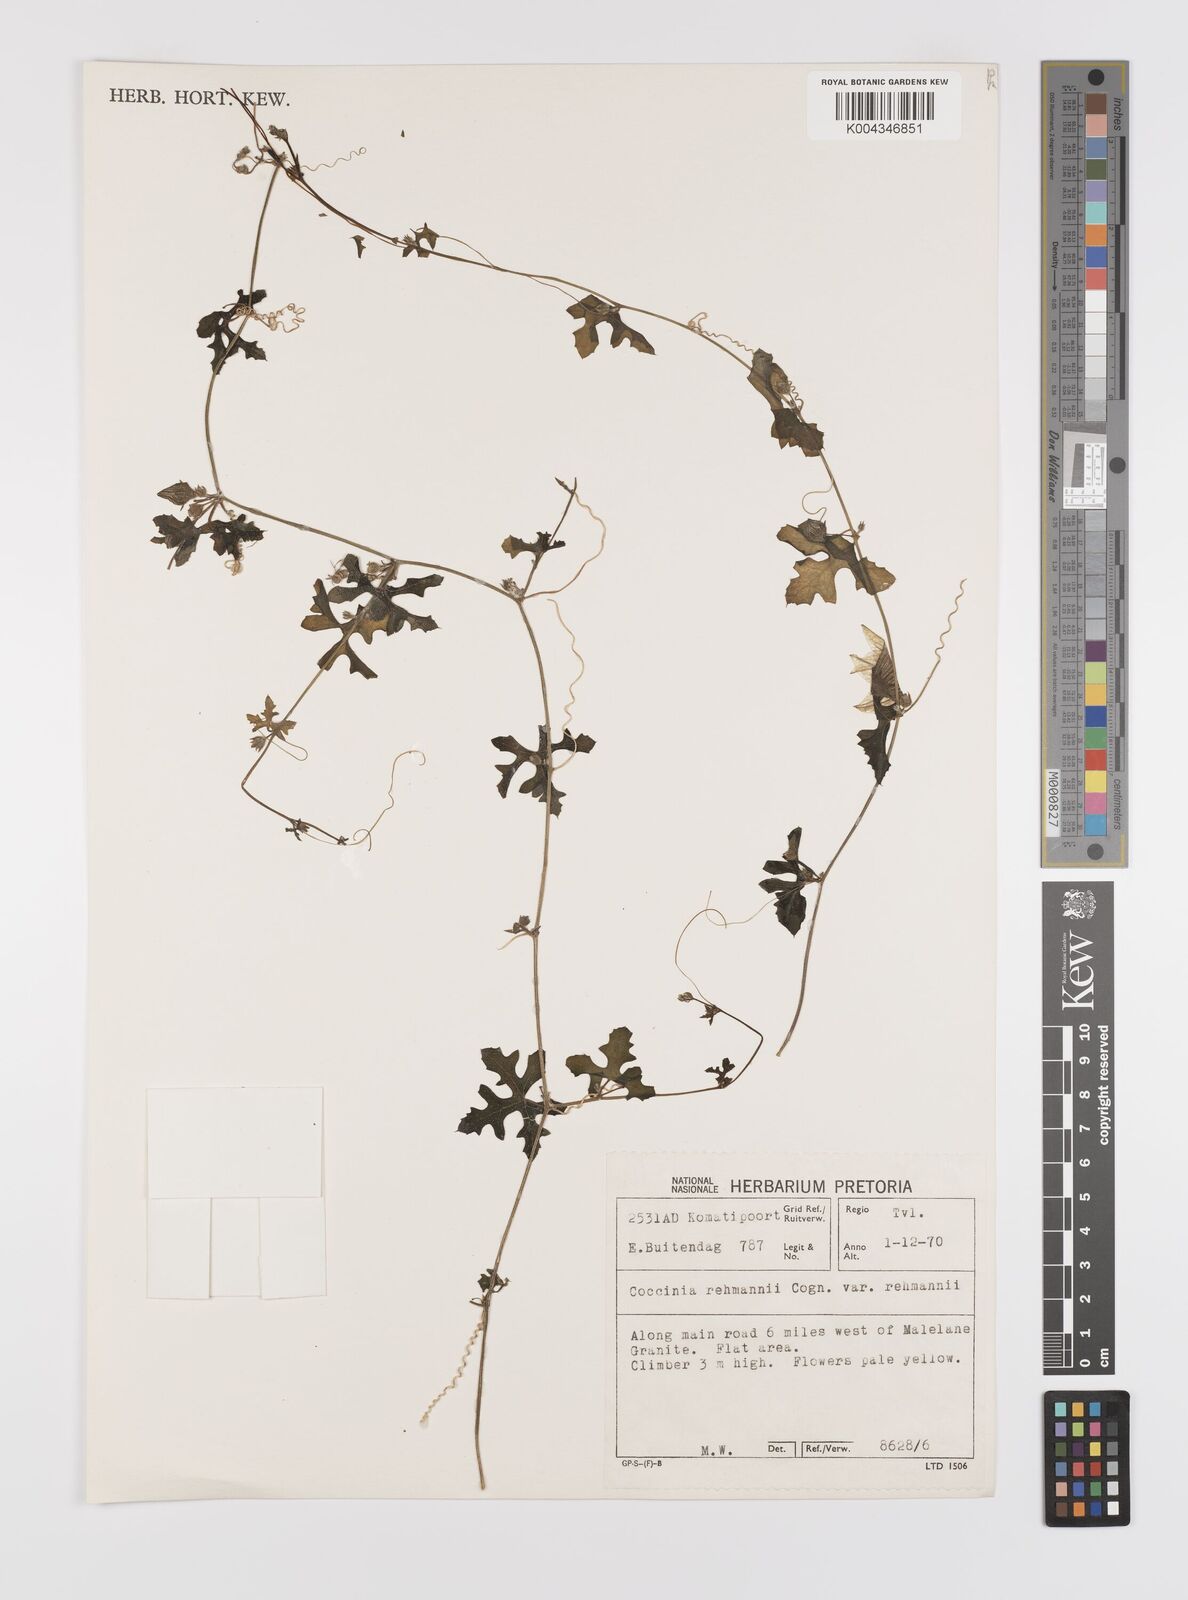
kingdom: Plantae
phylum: Tracheophyta
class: Magnoliopsida
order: Cucurbitales
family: Cucurbitaceae
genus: Coccinia
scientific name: Coccinia rehmannii
